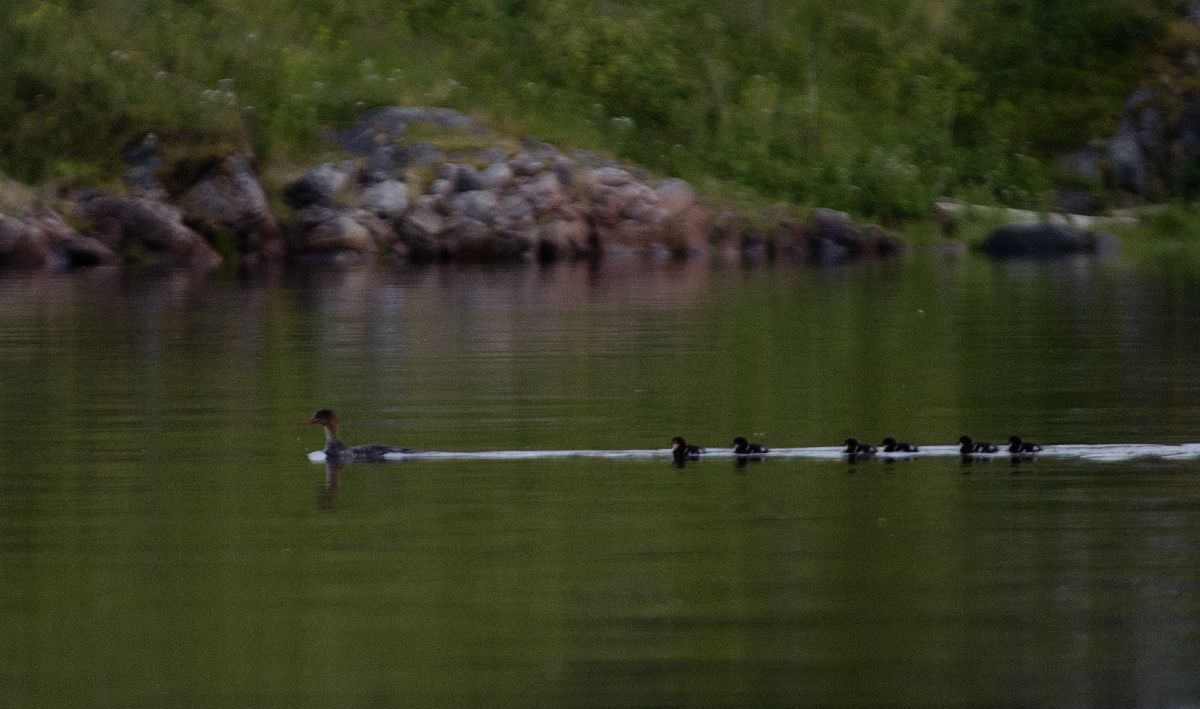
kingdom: Animalia
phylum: Chordata
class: Aves
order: Anseriformes
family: Anatidae
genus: Mergus
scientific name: Mergus serrator
